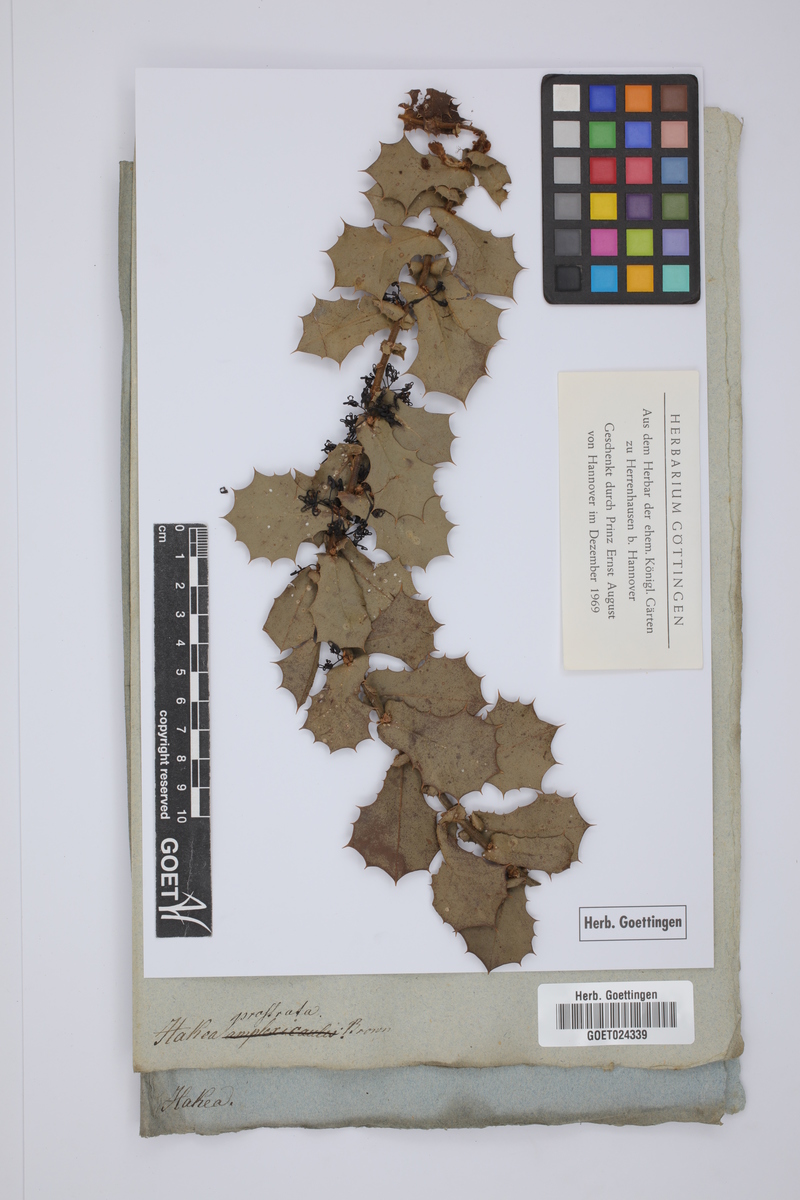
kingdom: Plantae
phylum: Tracheophyta
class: Magnoliopsida
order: Proteales
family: Proteaceae
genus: Hakea
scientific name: Hakea prostrata
